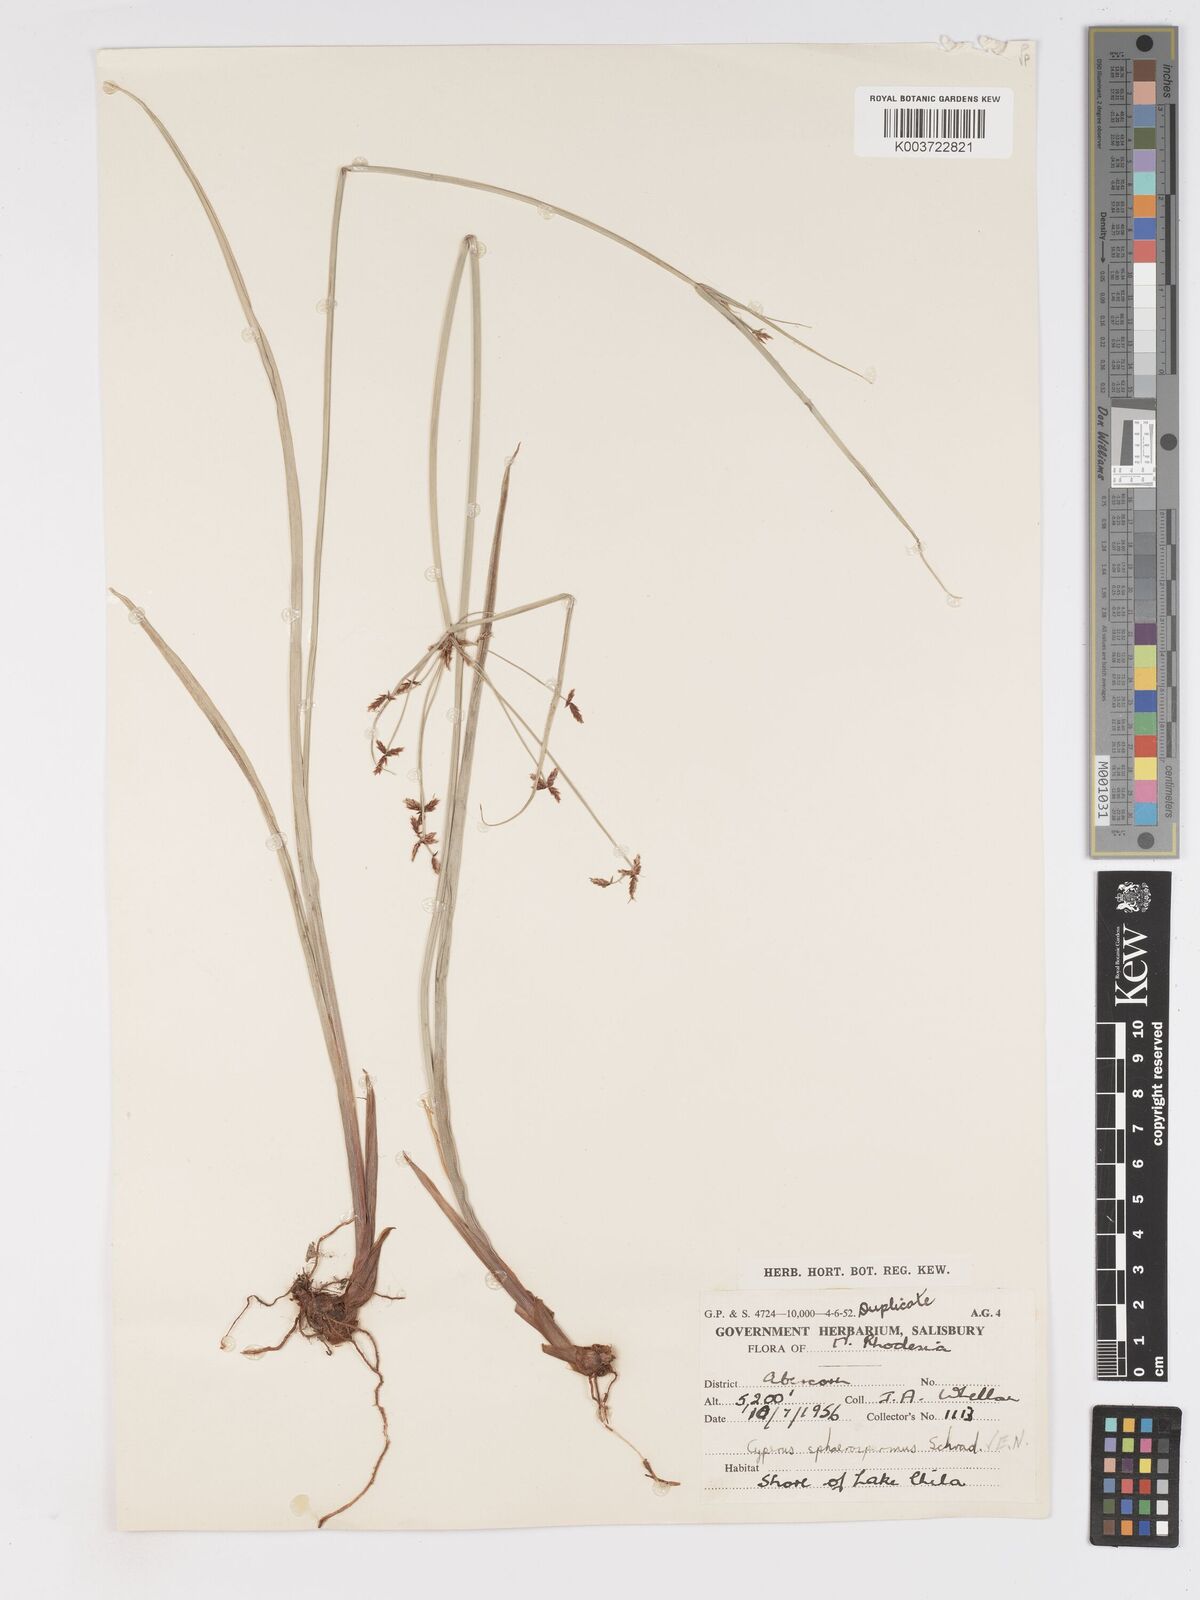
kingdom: Plantae
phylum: Tracheophyta
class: Liliopsida
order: Poales
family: Cyperaceae
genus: Cyperus
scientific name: Cyperus glaucophyllus
